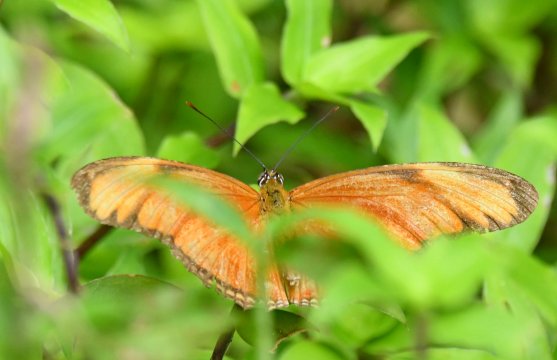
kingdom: Animalia
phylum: Arthropoda
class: Insecta
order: Lepidoptera
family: Nymphalidae
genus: Dryas
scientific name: Dryas iulia
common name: Julia
